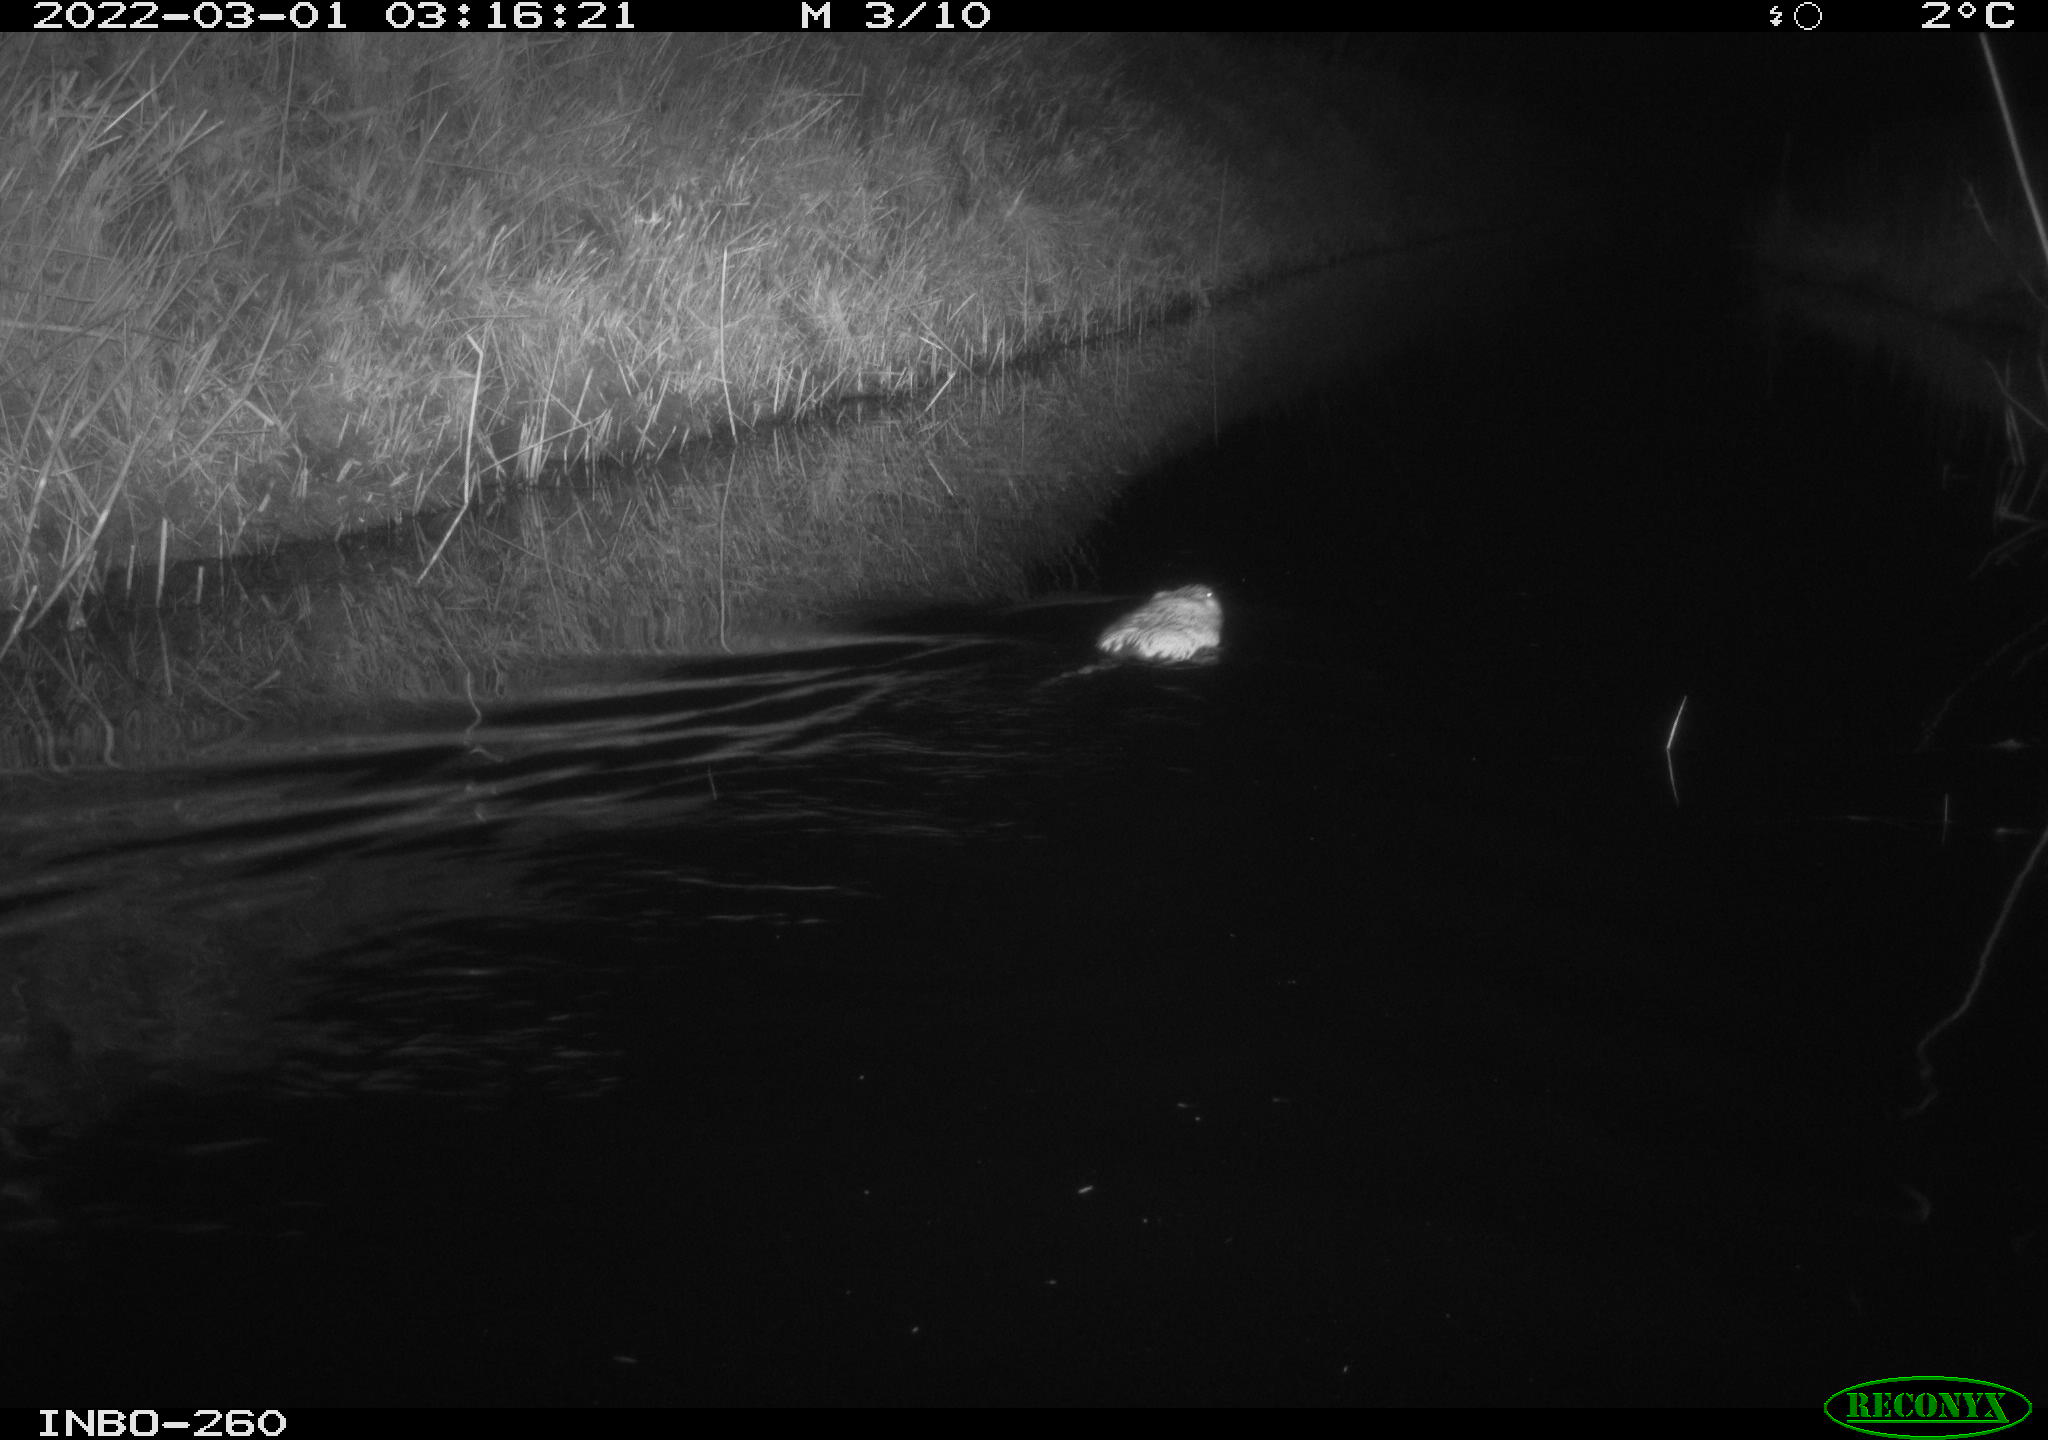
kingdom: Animalia
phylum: Chordata
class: Mammalia
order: Rodentia
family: Cricetidae
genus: Ondatra
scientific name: Ondatra zibethicus
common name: Muskrat
